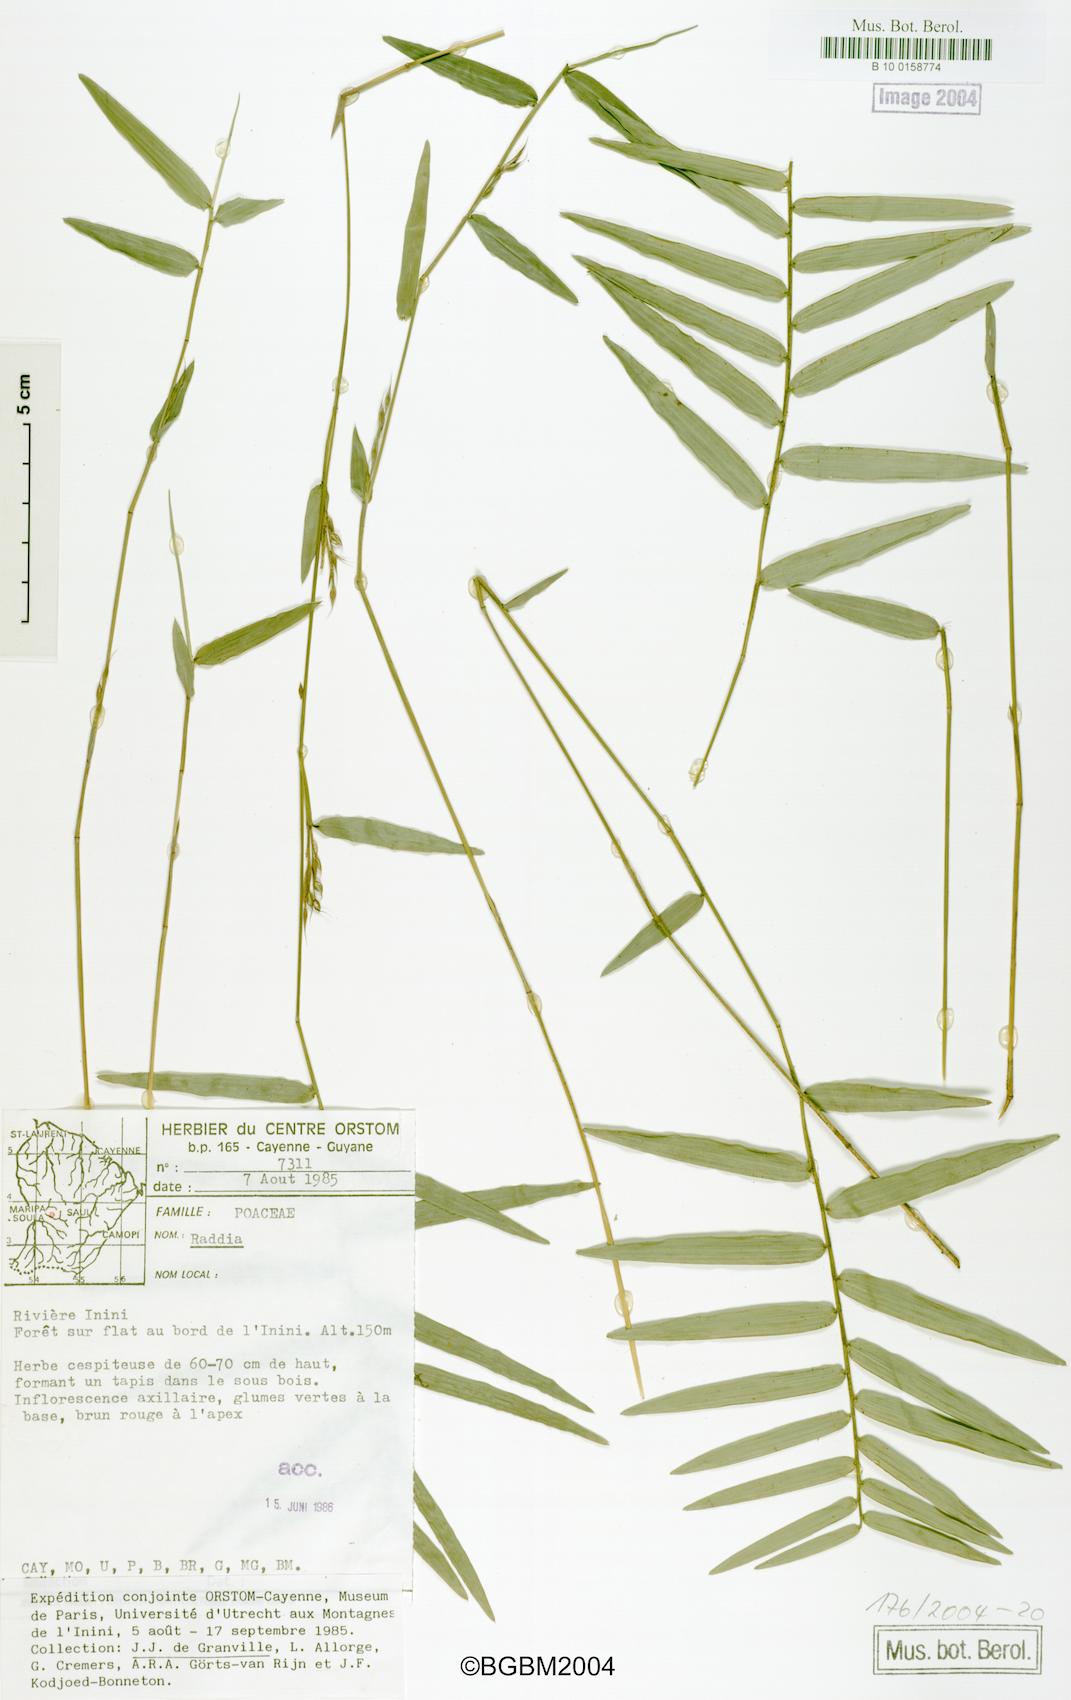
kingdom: Plantae
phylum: Tracheophyta
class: Liliopsida
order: Poales
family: Poaceae
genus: Raddia
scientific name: Raddia guianensis
